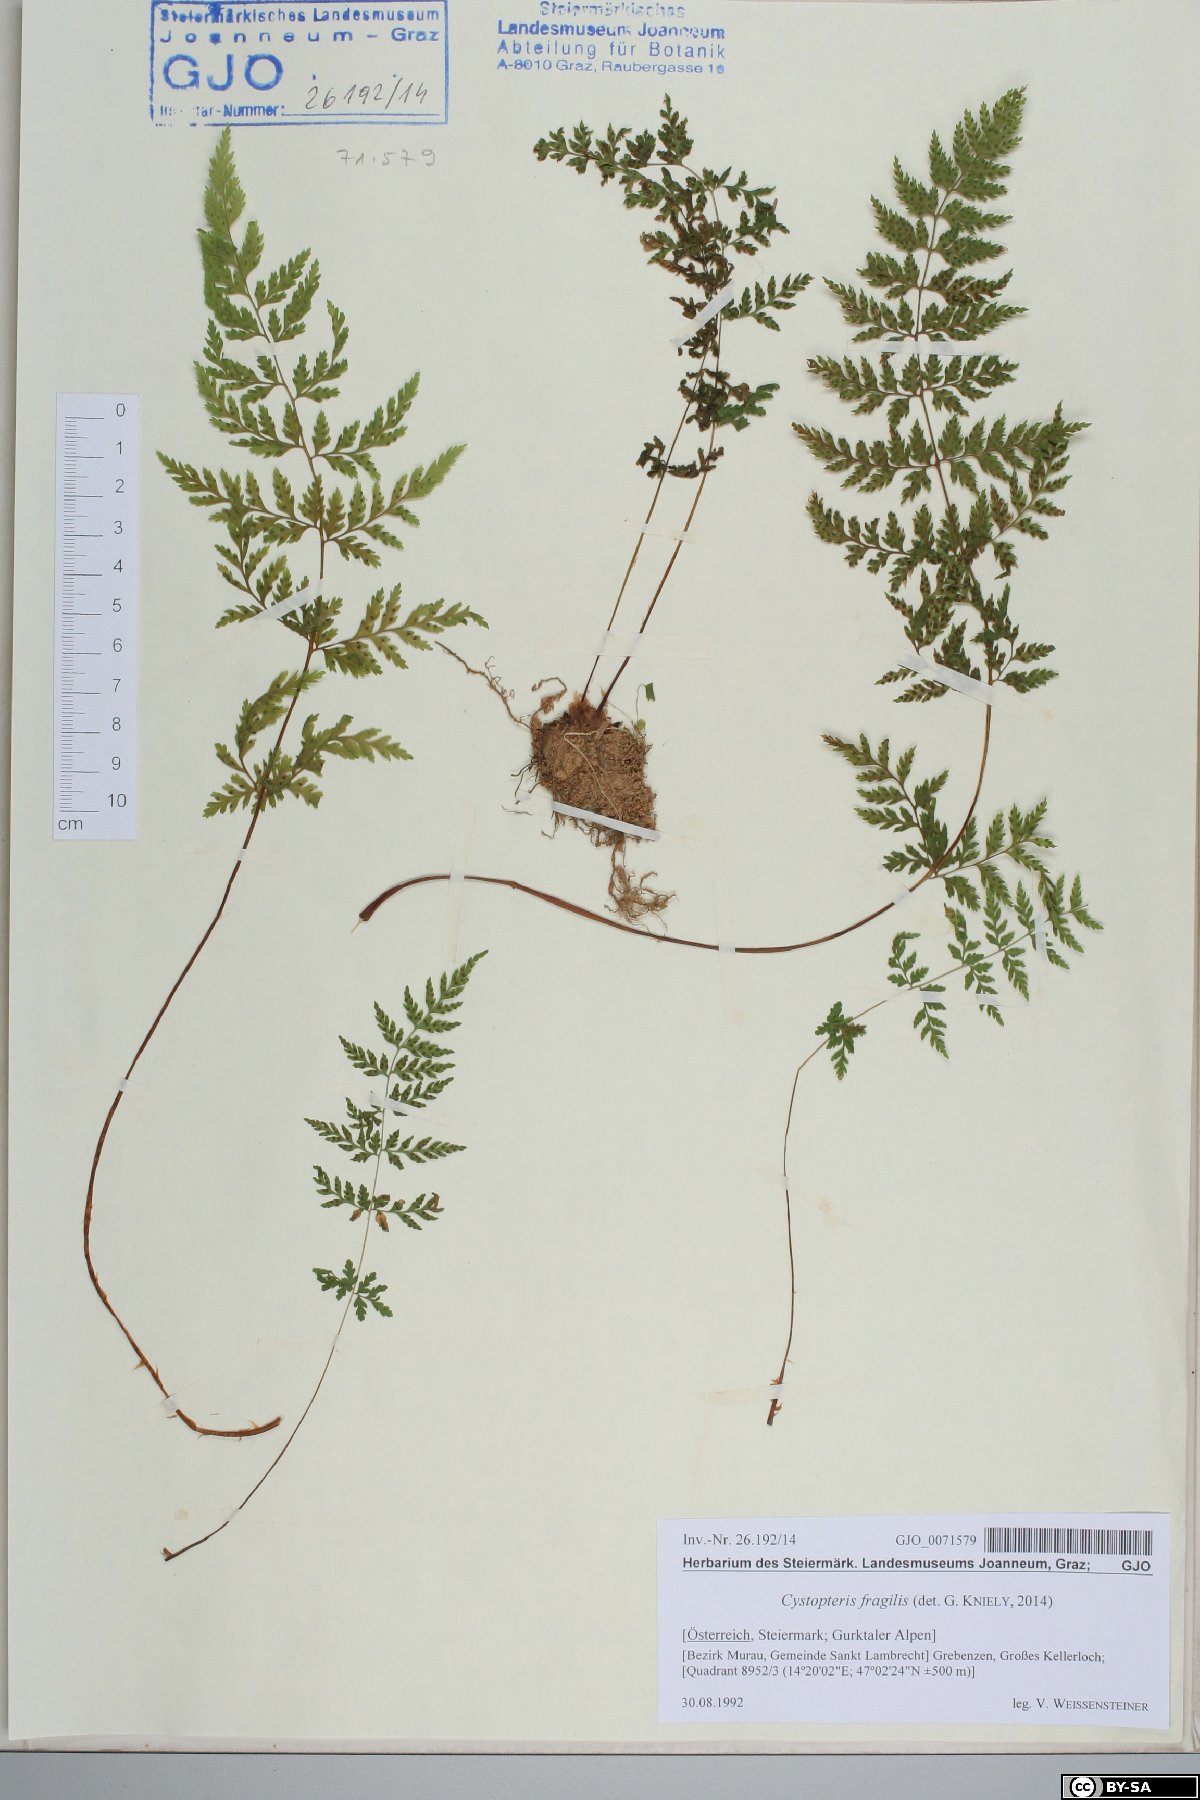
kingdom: Plantae
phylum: Tracheophyta
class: Polypodiopsida
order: Polypodiales
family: Cystopteridaceae
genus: Cystopteris
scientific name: Cystopteris fragilis
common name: Brittle bladder fern
